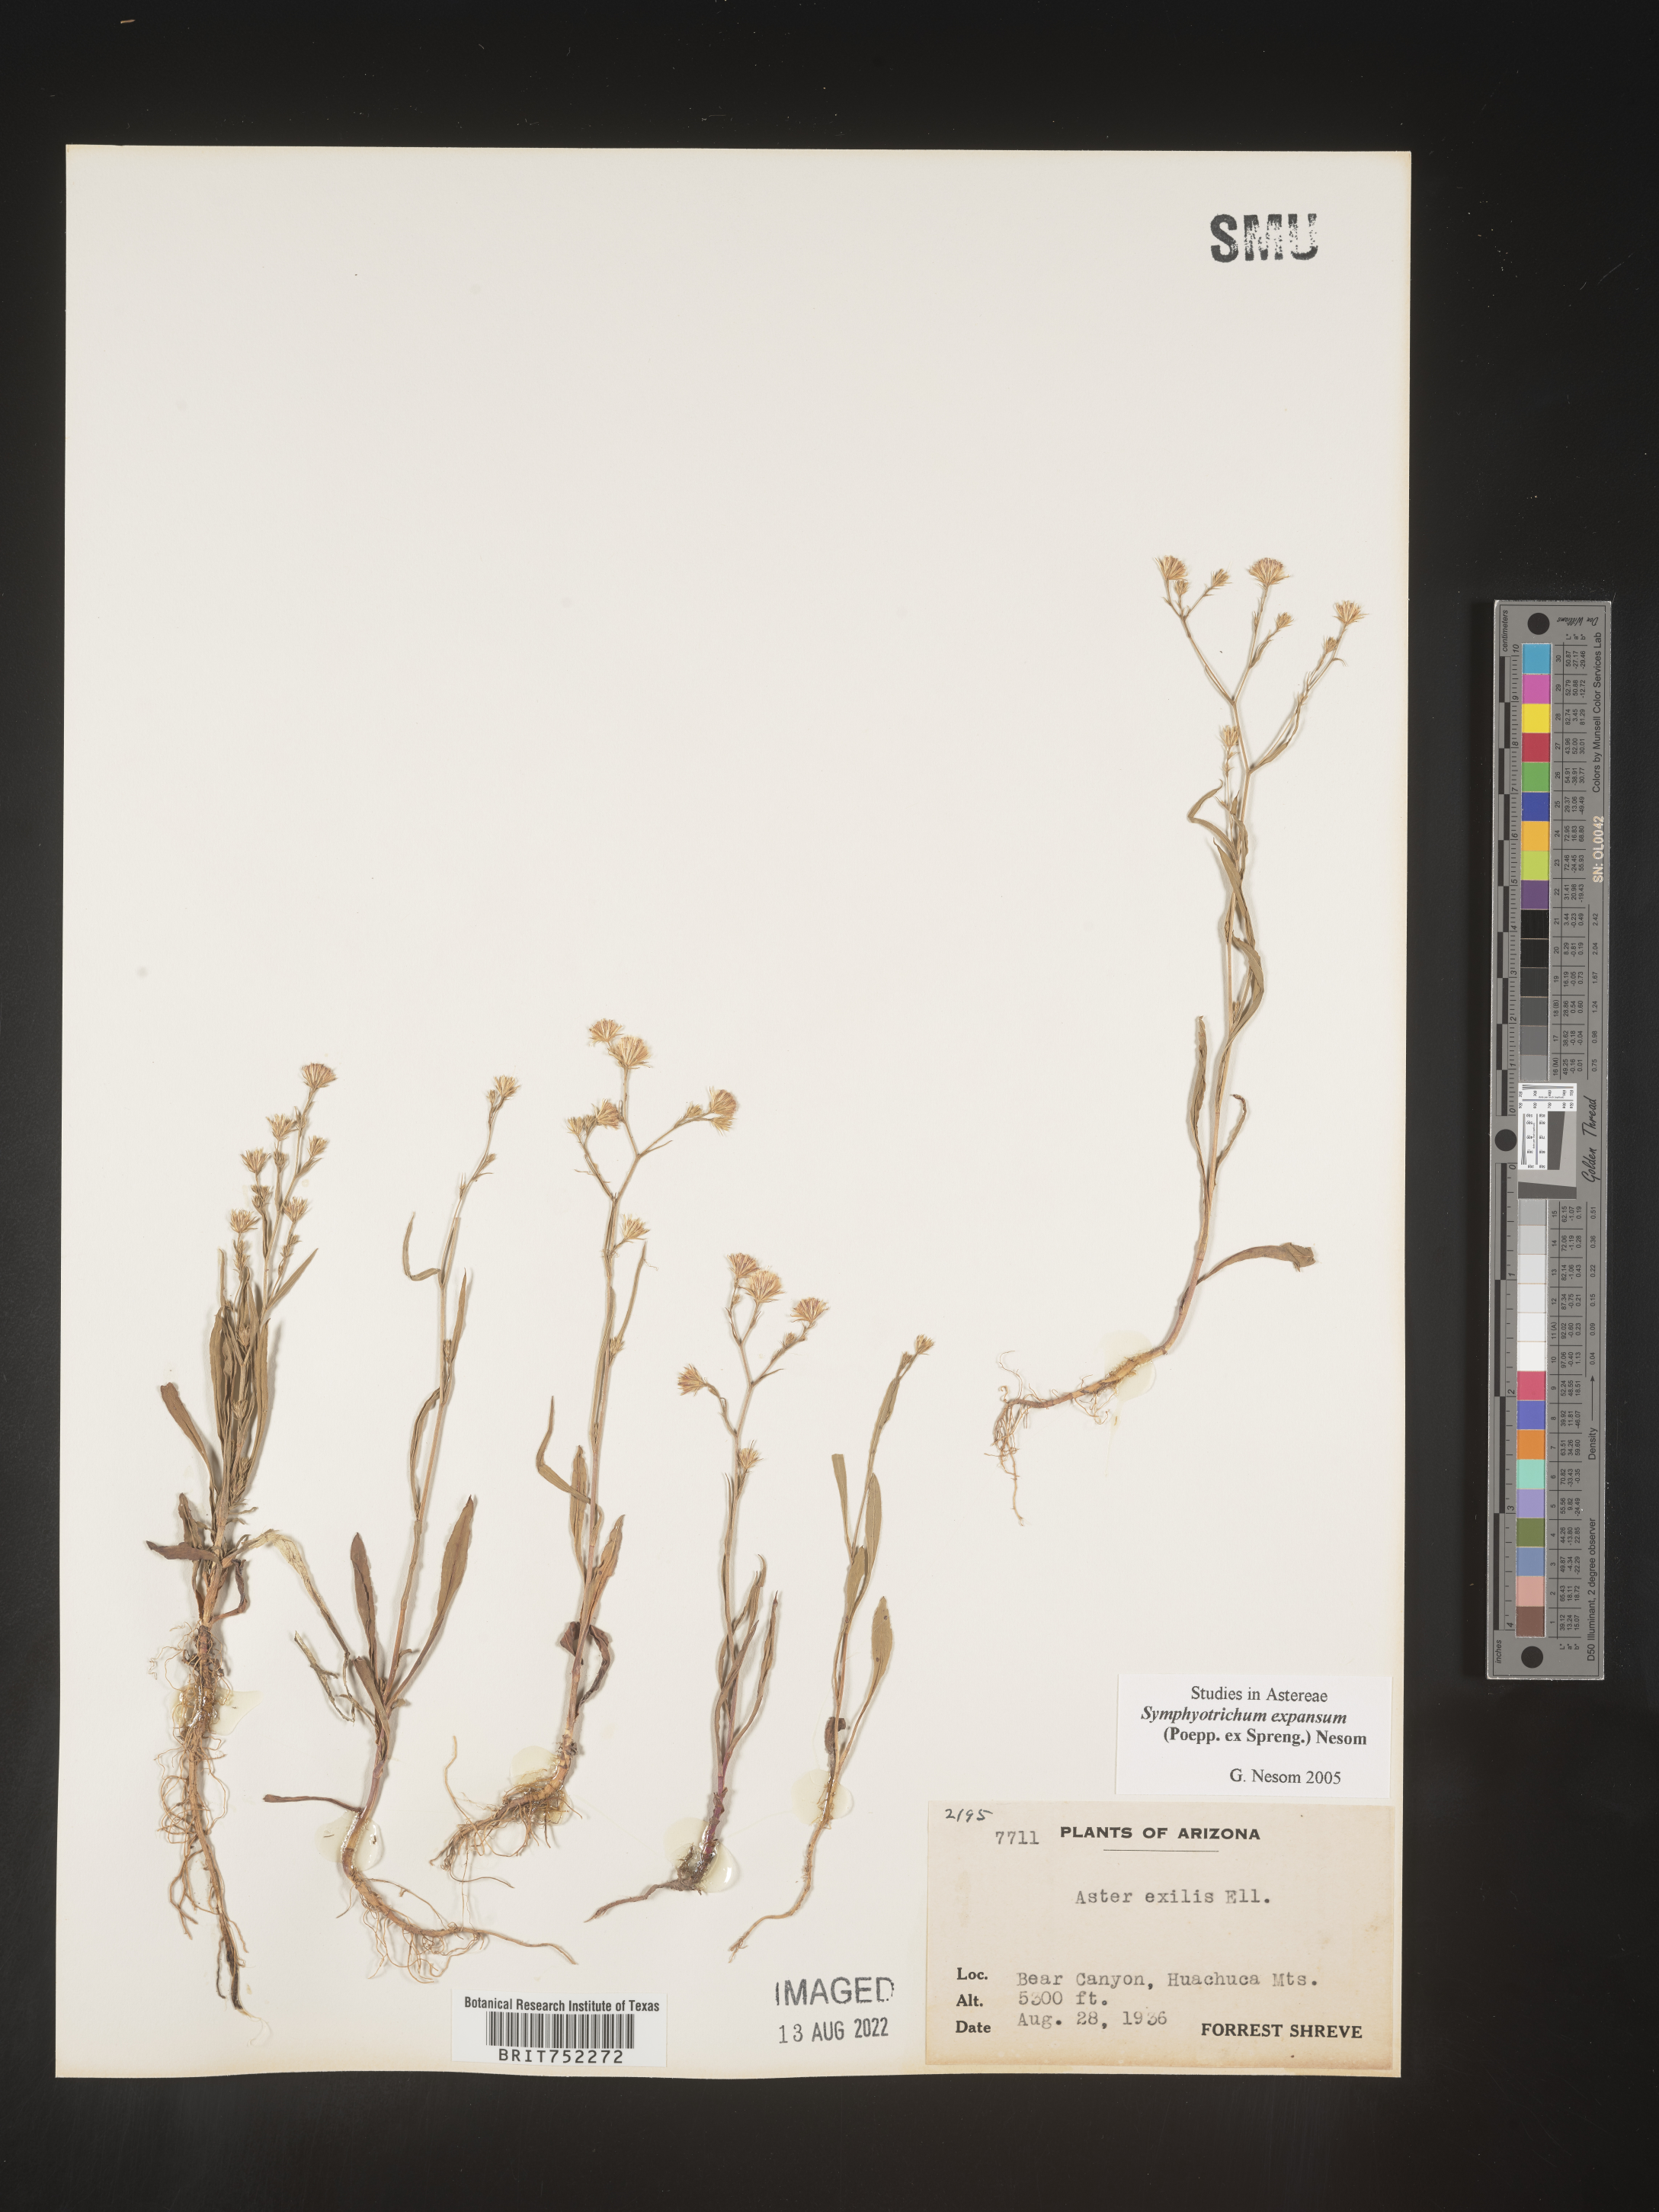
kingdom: Plantae
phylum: Tracheophyta
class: Magnoliopsida
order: Asterales
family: Asteraceae
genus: Symphyotrichum
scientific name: Symphyotrichum expansum
